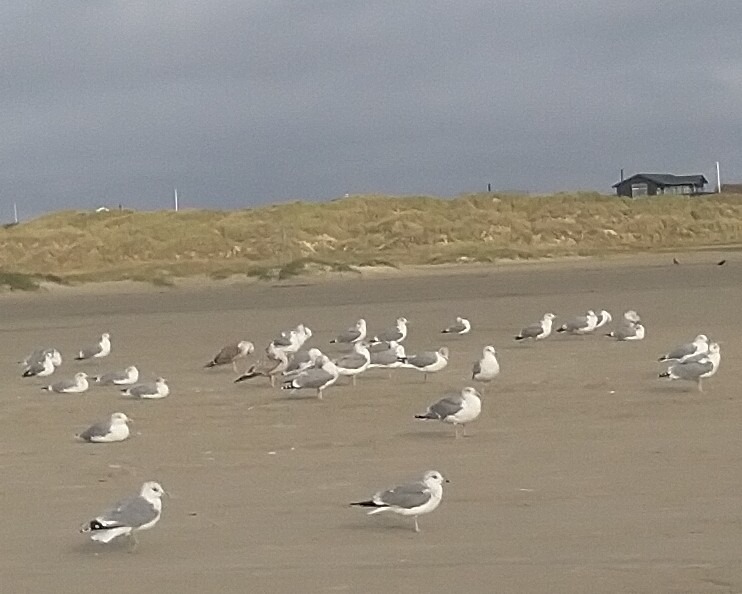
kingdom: Animalia
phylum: Chordata
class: Aves
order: Charadriiformes
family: Laridae
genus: Larus
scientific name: Larus argentatus
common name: Sølvmåge
